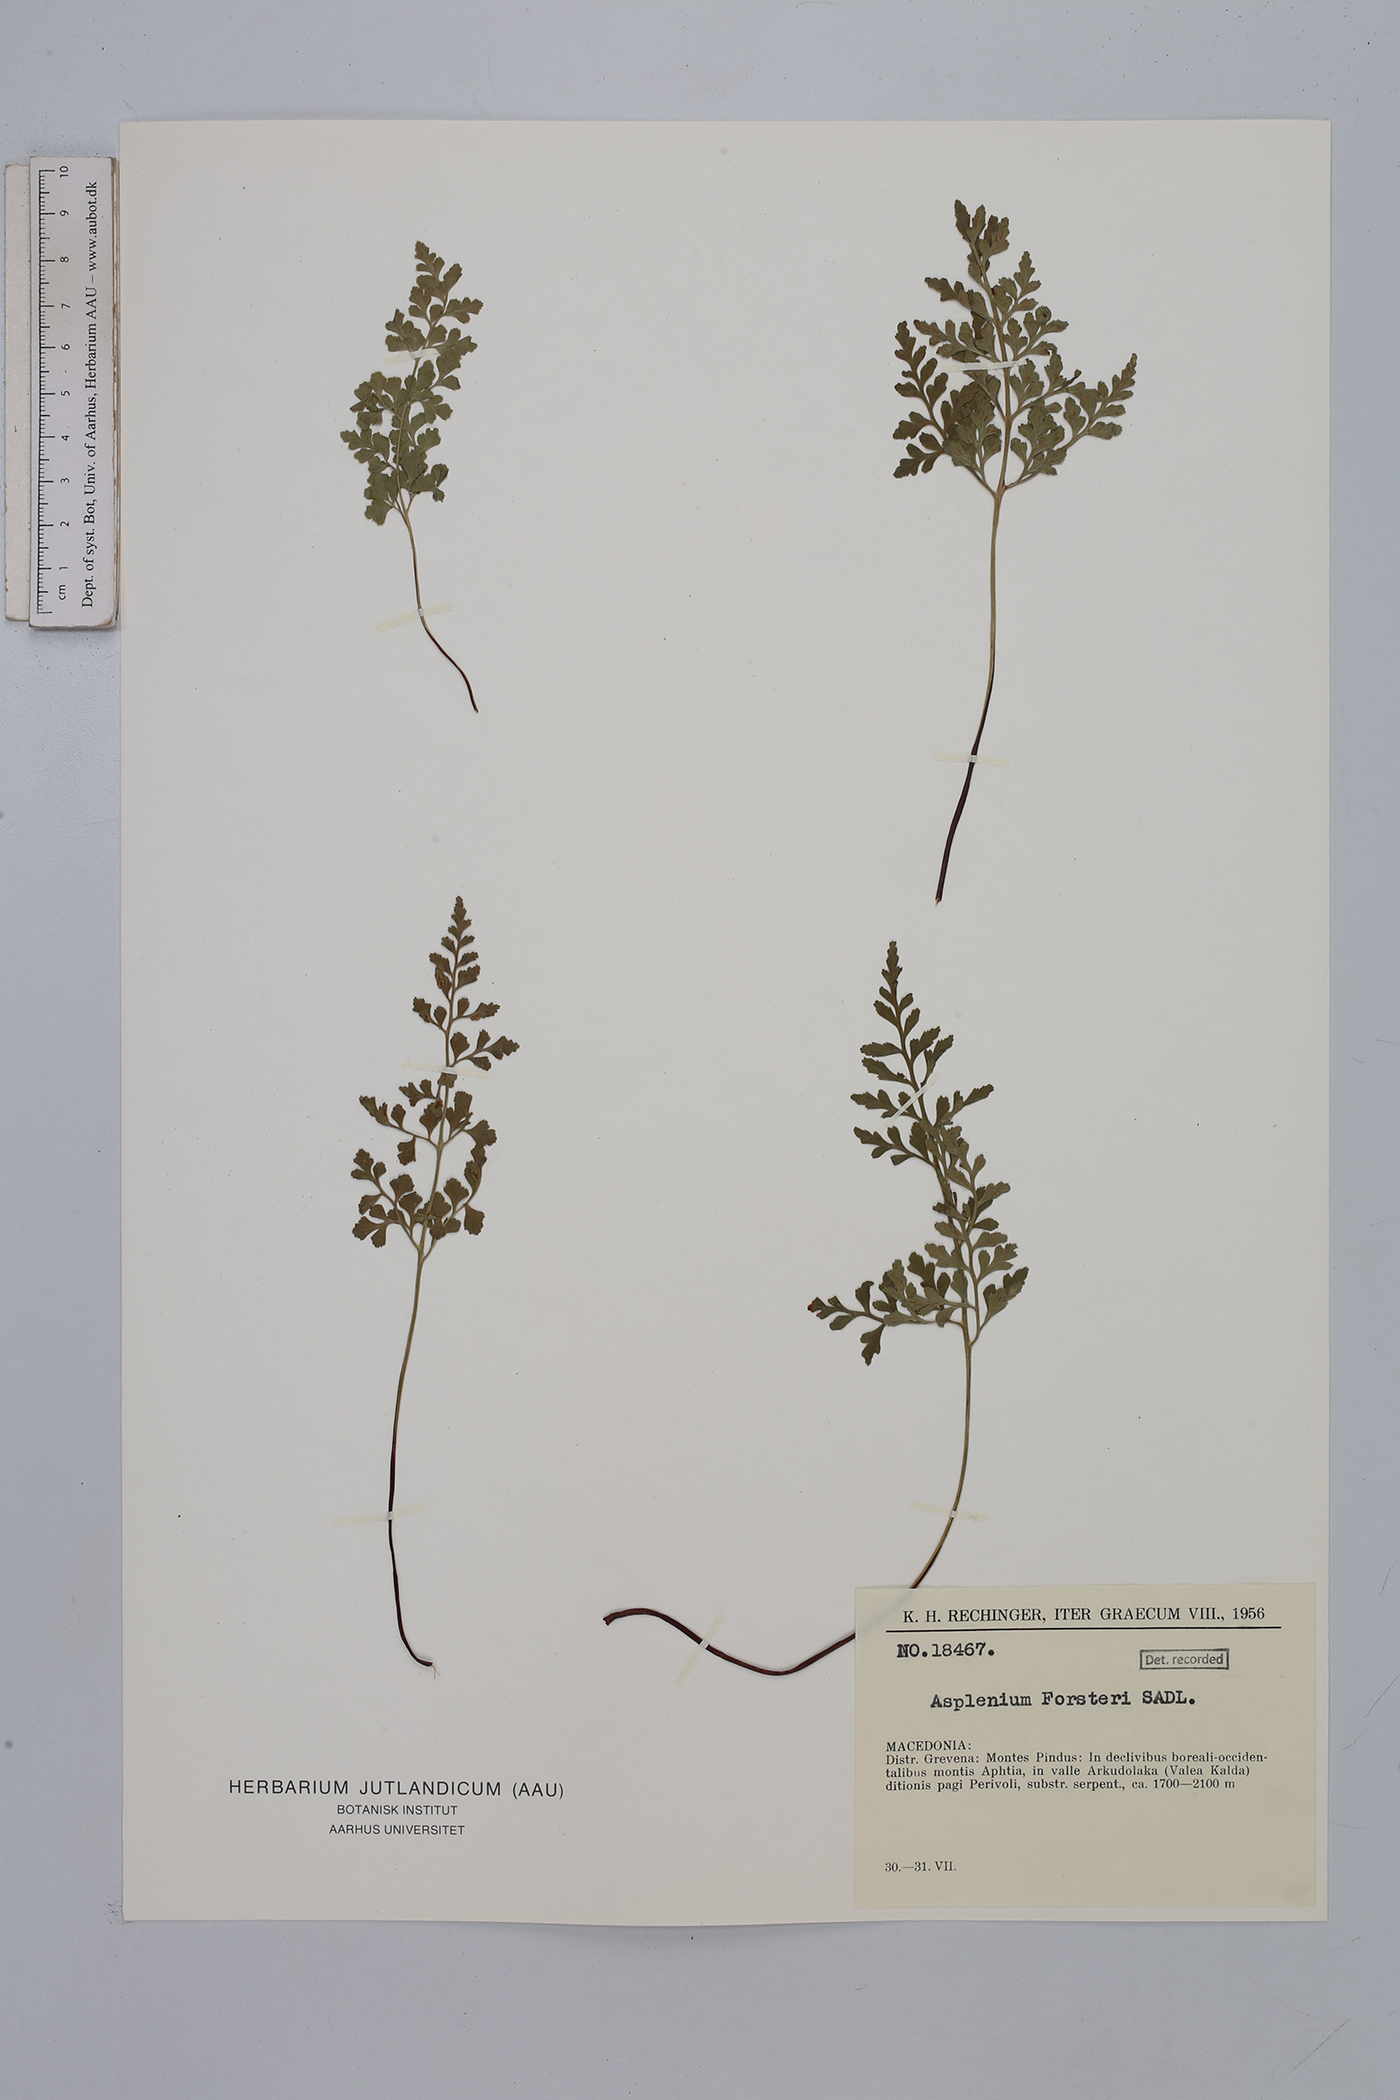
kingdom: Plantae
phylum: Tracheophyta
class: Polypodiopsida
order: Polypodiales
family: Aspleniaceae
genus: Asplenium
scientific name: Asplenium cuneifolium
